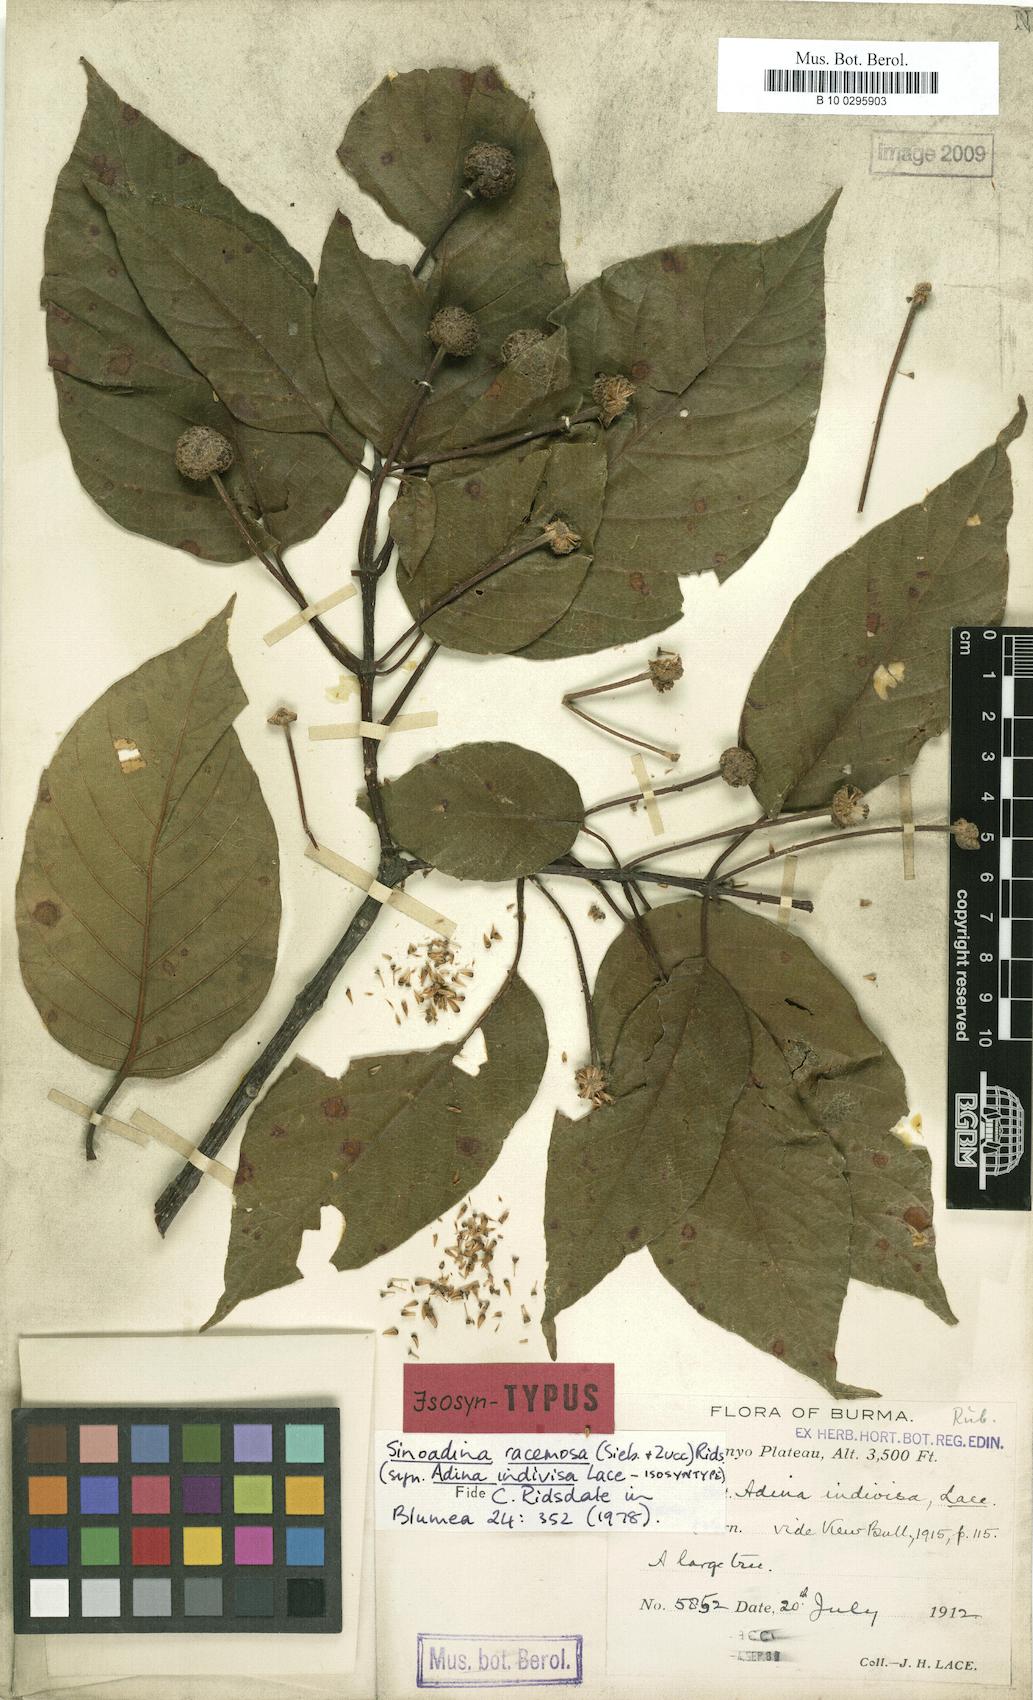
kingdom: Plantae
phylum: Tracheophyta
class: Magnoliopsida
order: Gentianales
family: Rubiaceae
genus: Adina
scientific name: Adina racemosa
